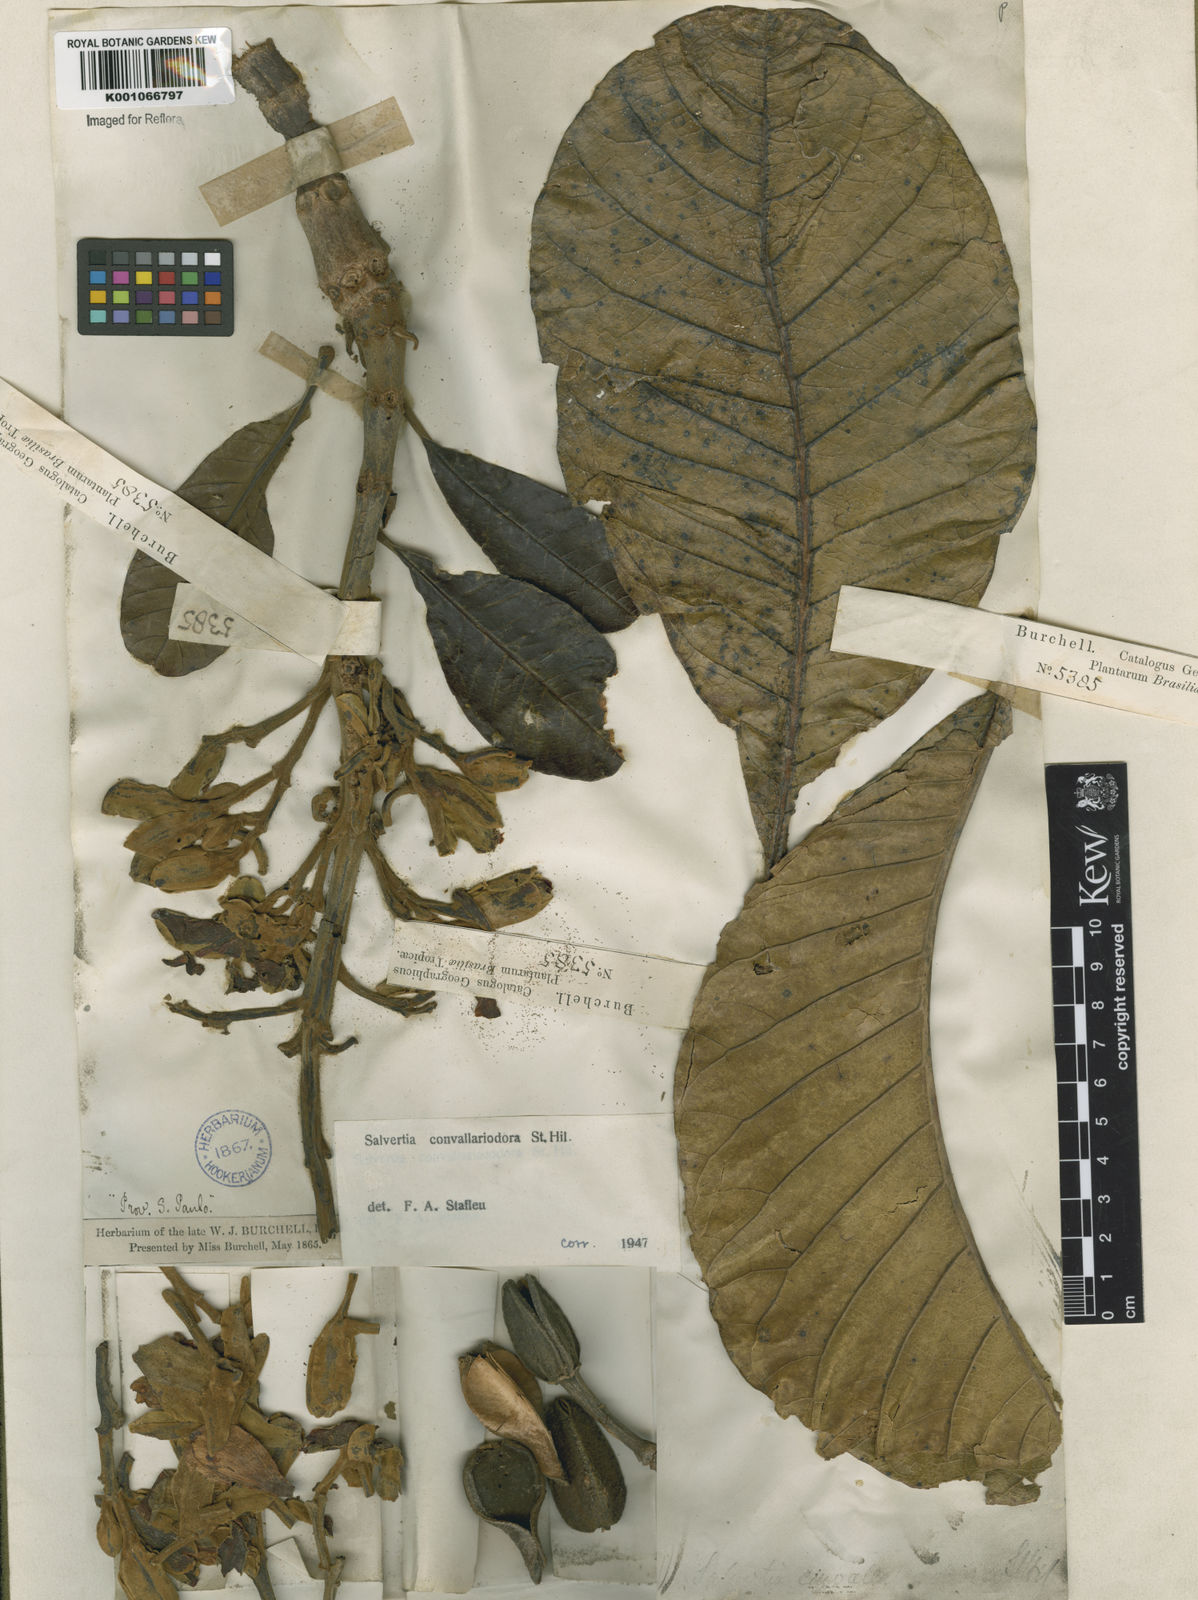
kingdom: Plantae
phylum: Tracheophyta
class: Magnoliopsida
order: Myrtales
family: Vochysiaceae
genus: Salvertia
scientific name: Salvertia convallariodora
